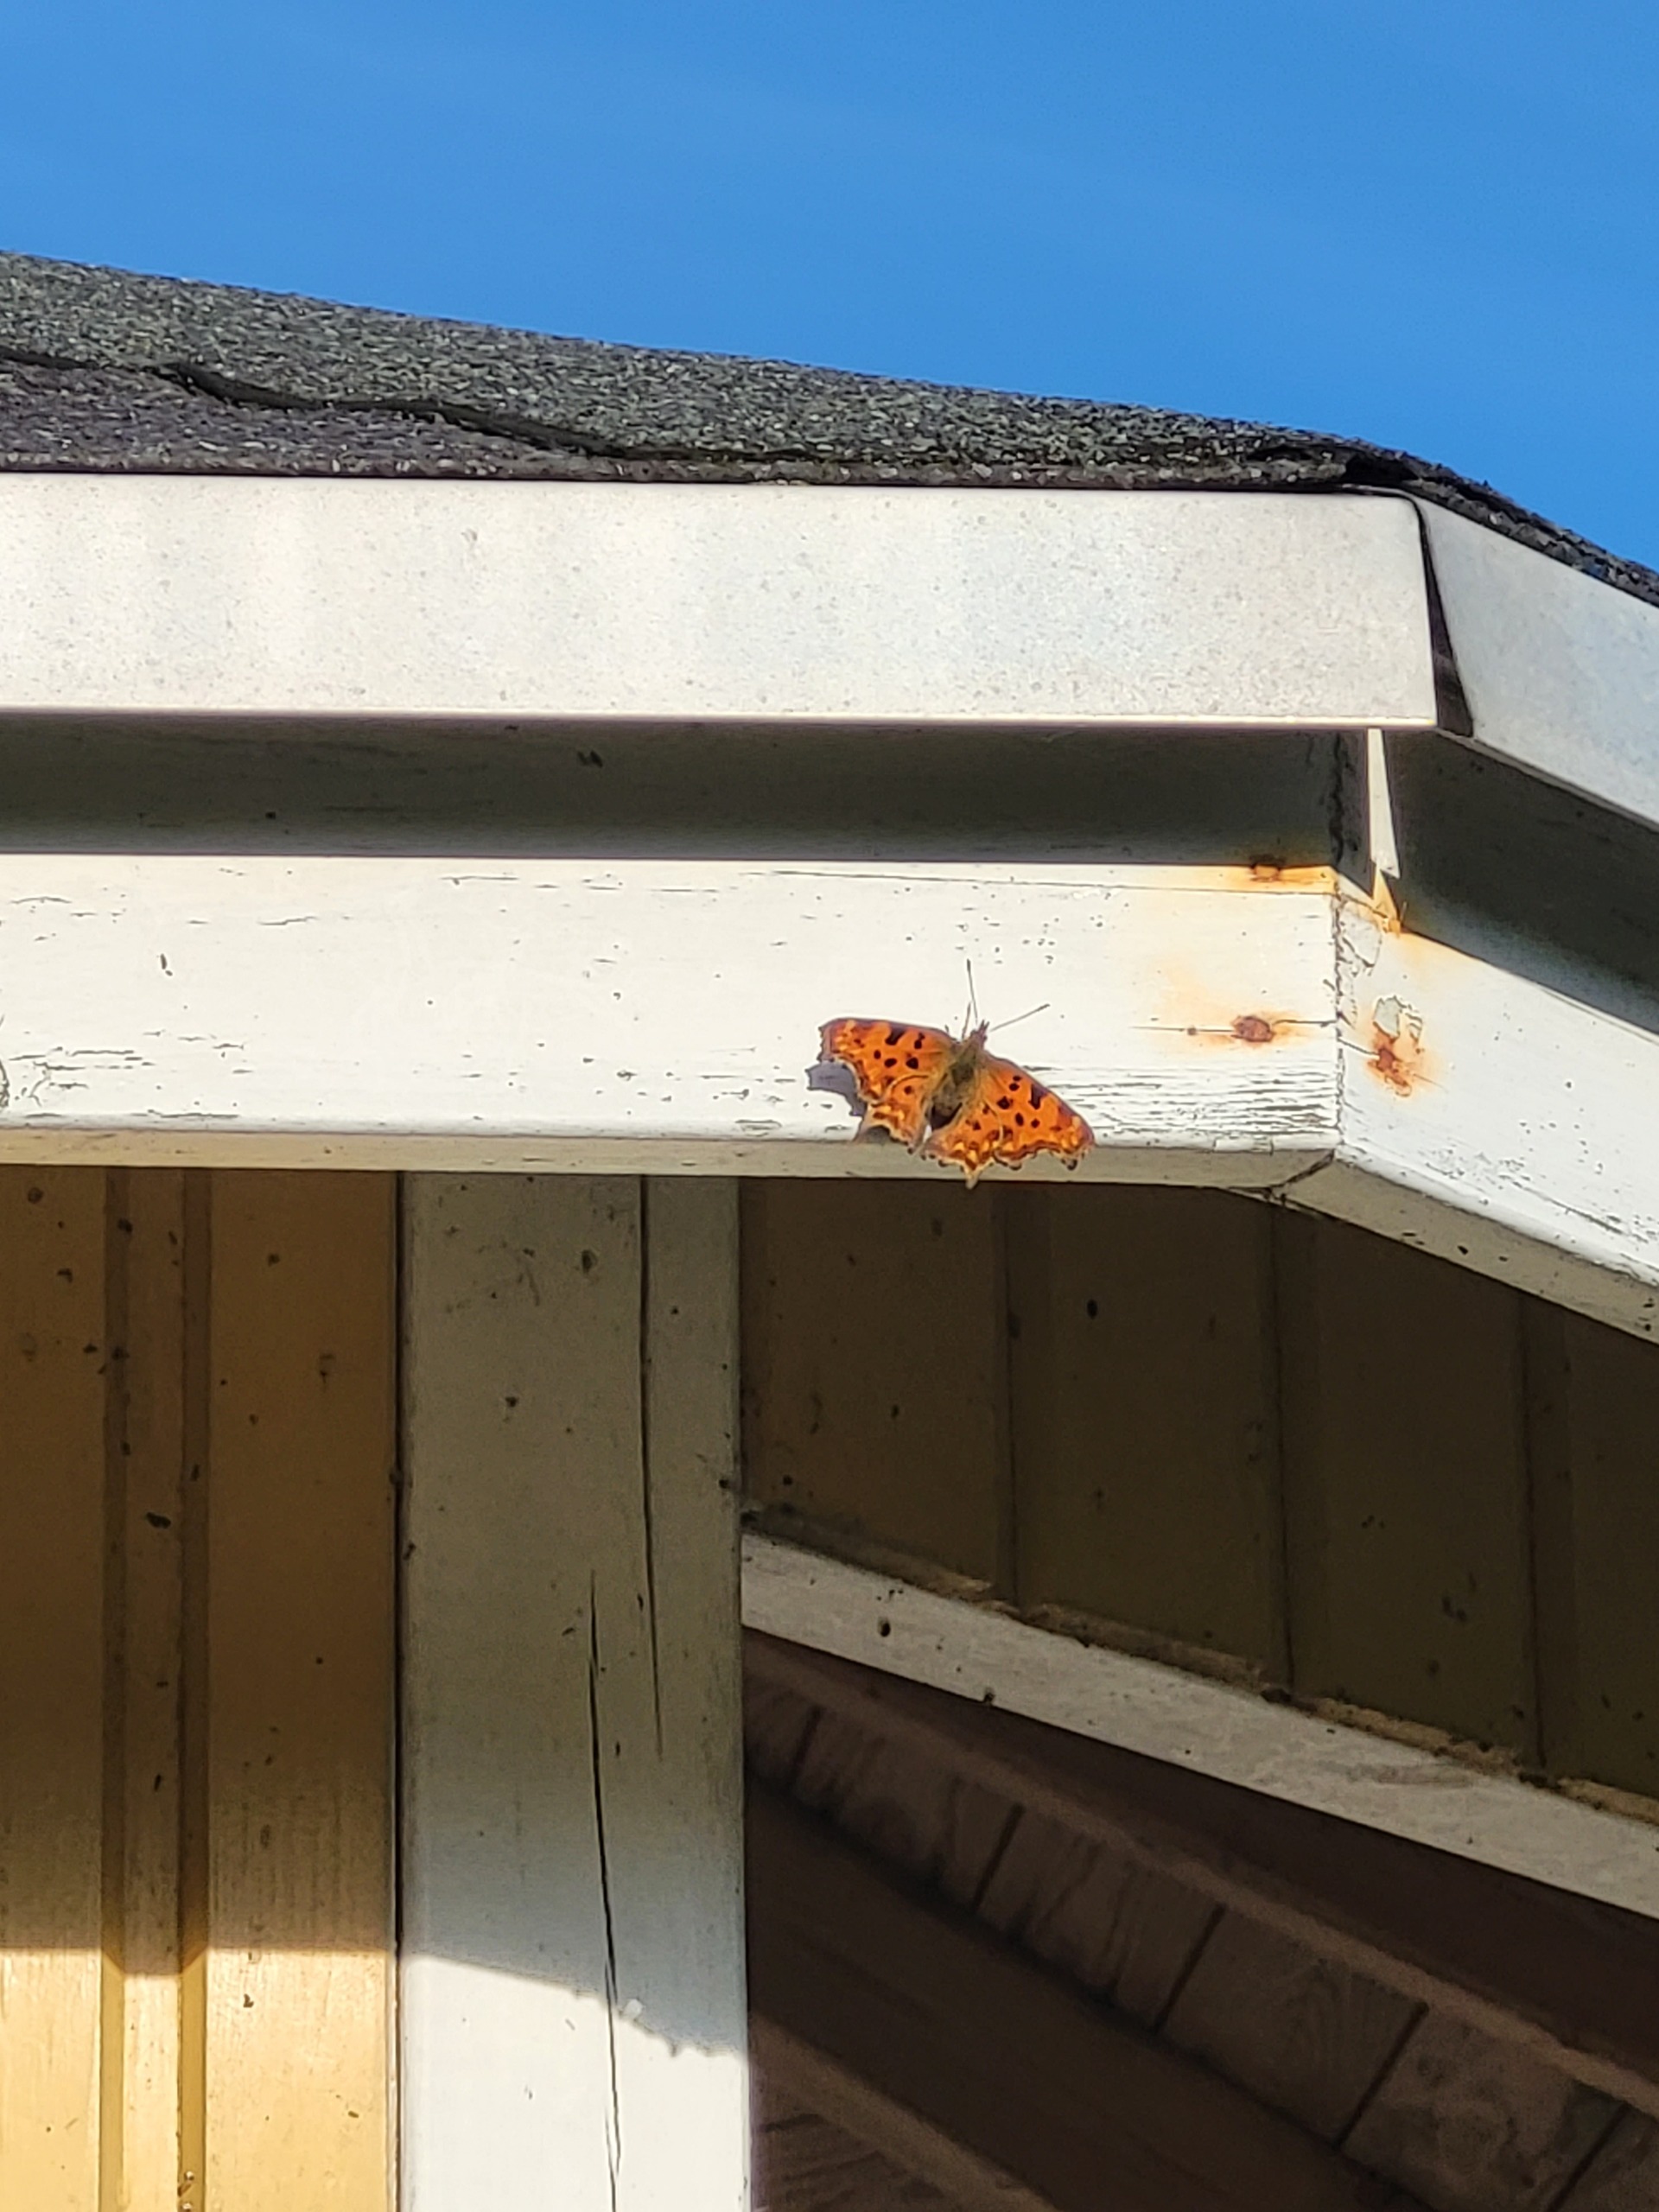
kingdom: Animalia
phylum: Arthropoda
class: Insecta
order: Lepidoptera
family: Nymphalidae
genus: Polygonia
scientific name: Polygonia c-album
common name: Det hvide C
